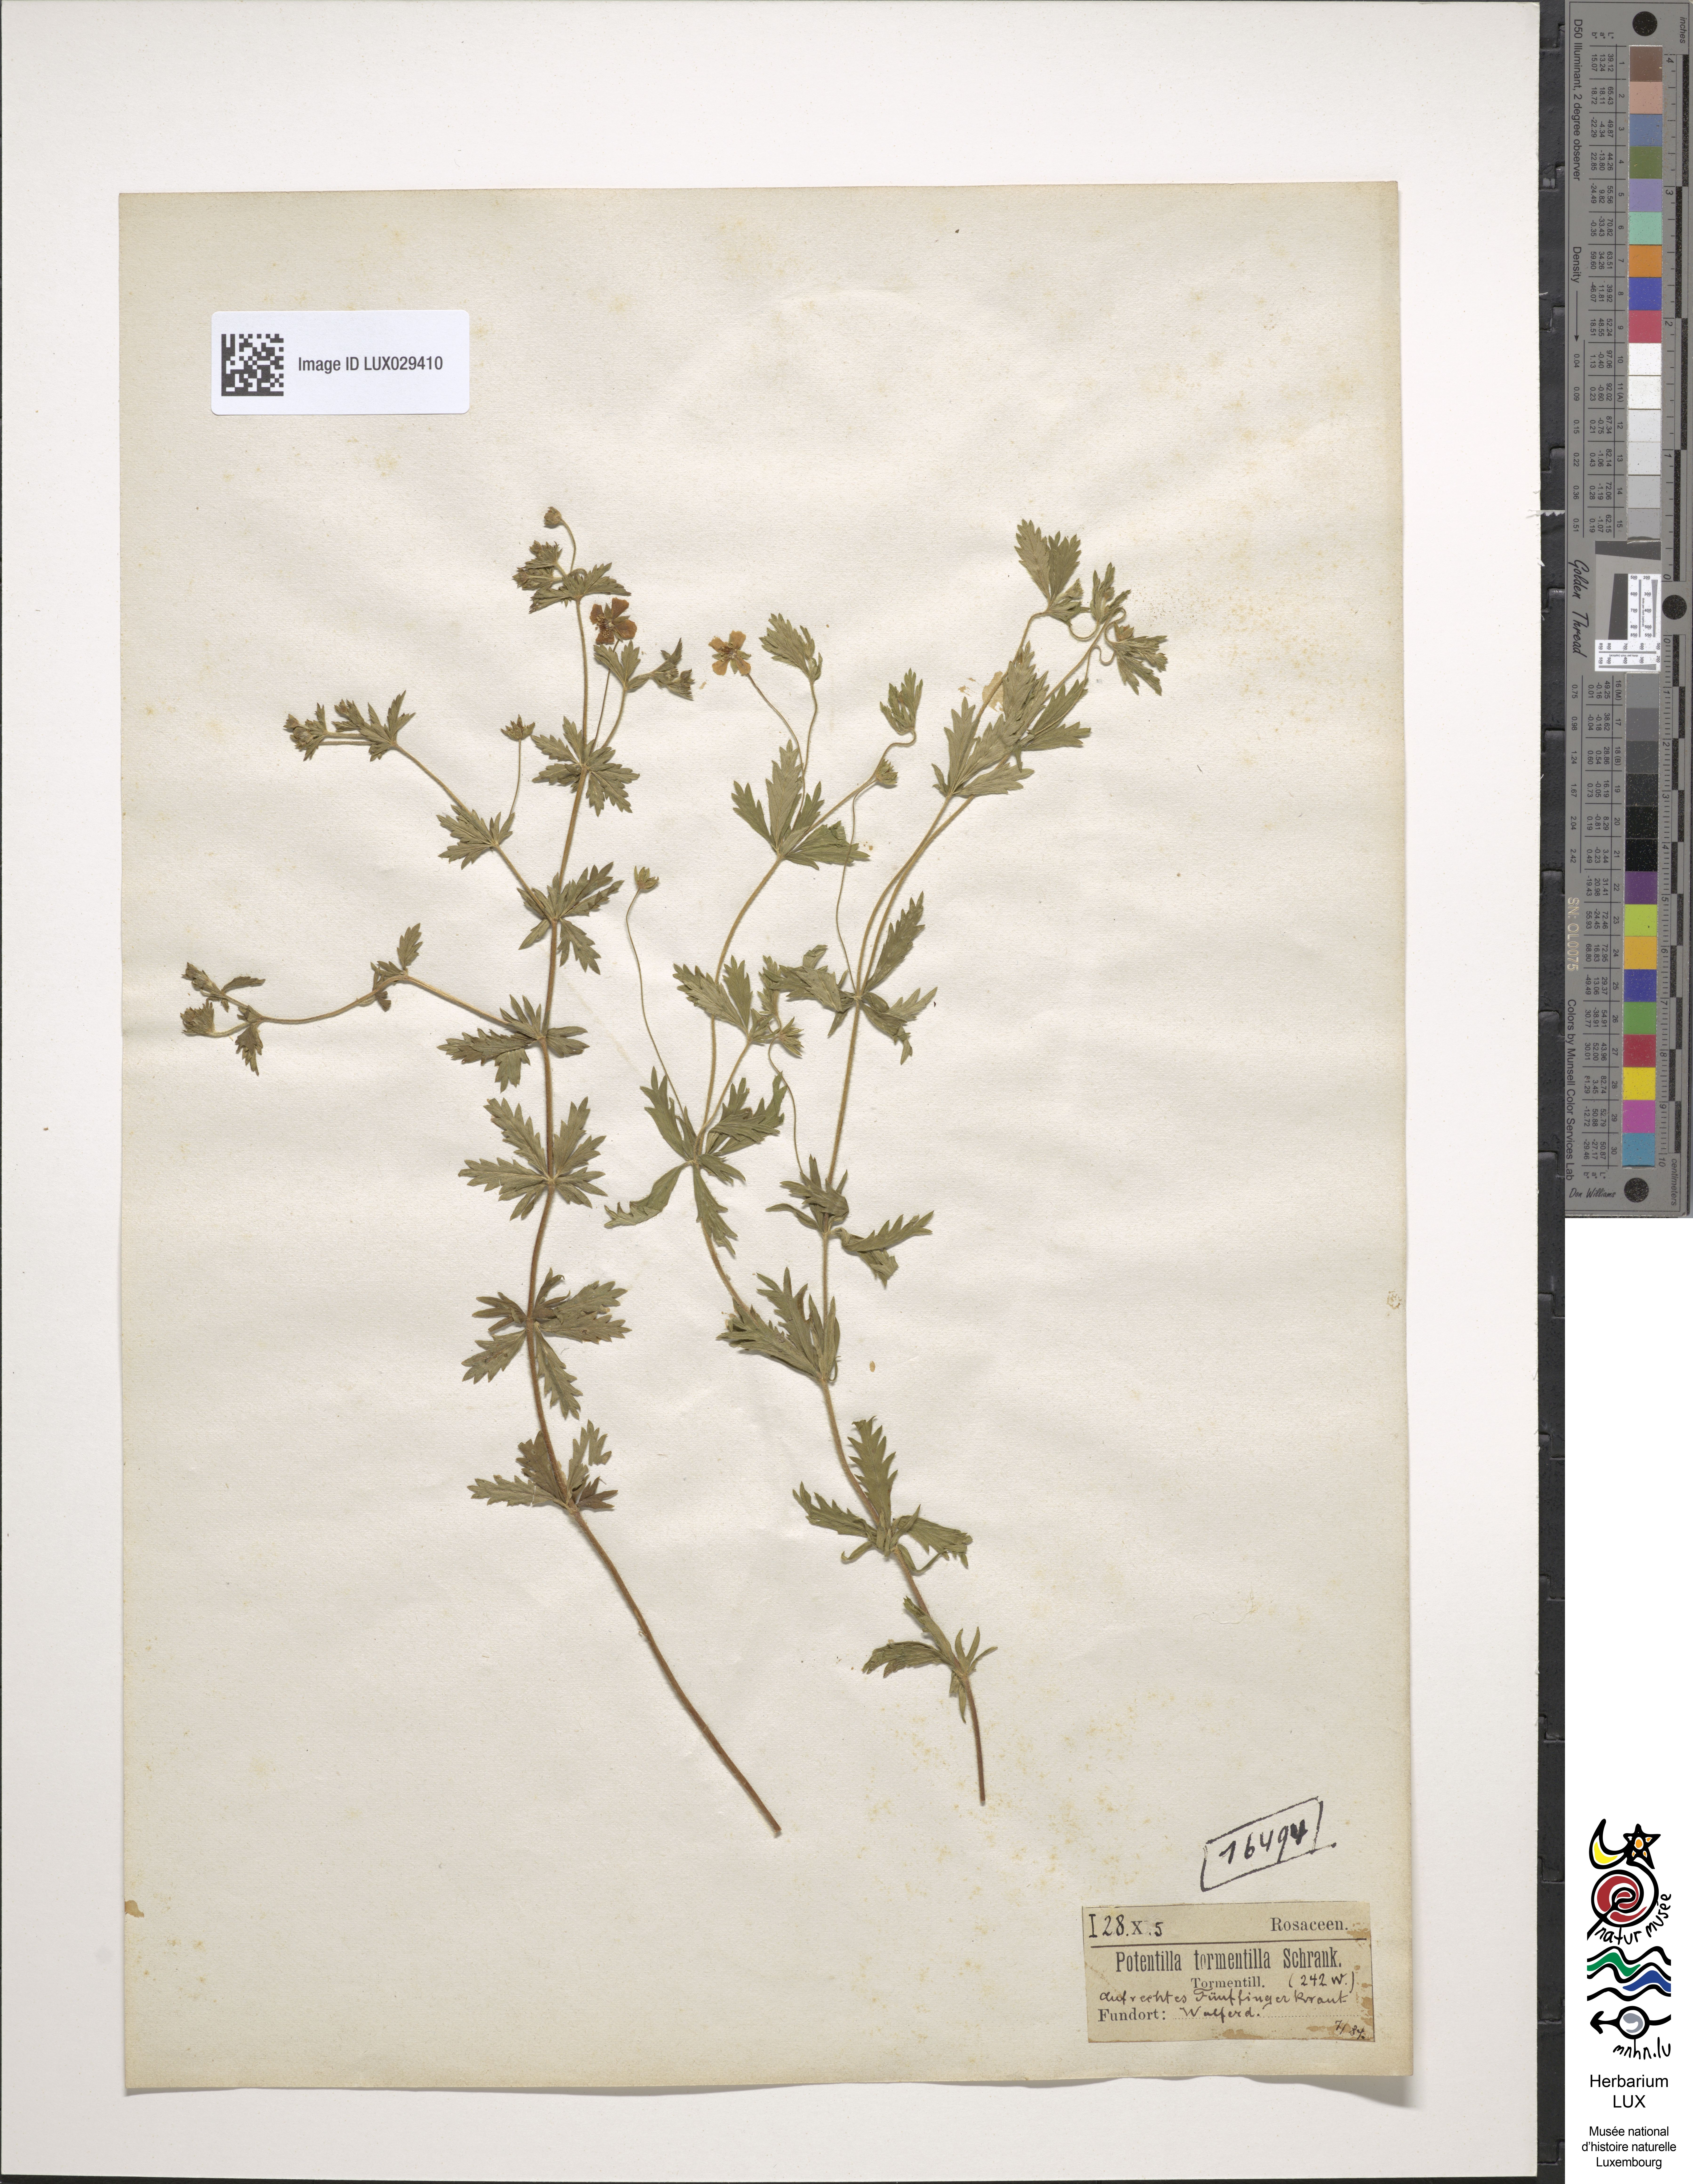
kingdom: Plantae
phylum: Tracheophyta
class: Magnoliopsida
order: Rosales
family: Rosaceae
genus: Potentilla
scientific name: Potentilla erecta
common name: Tormentil
